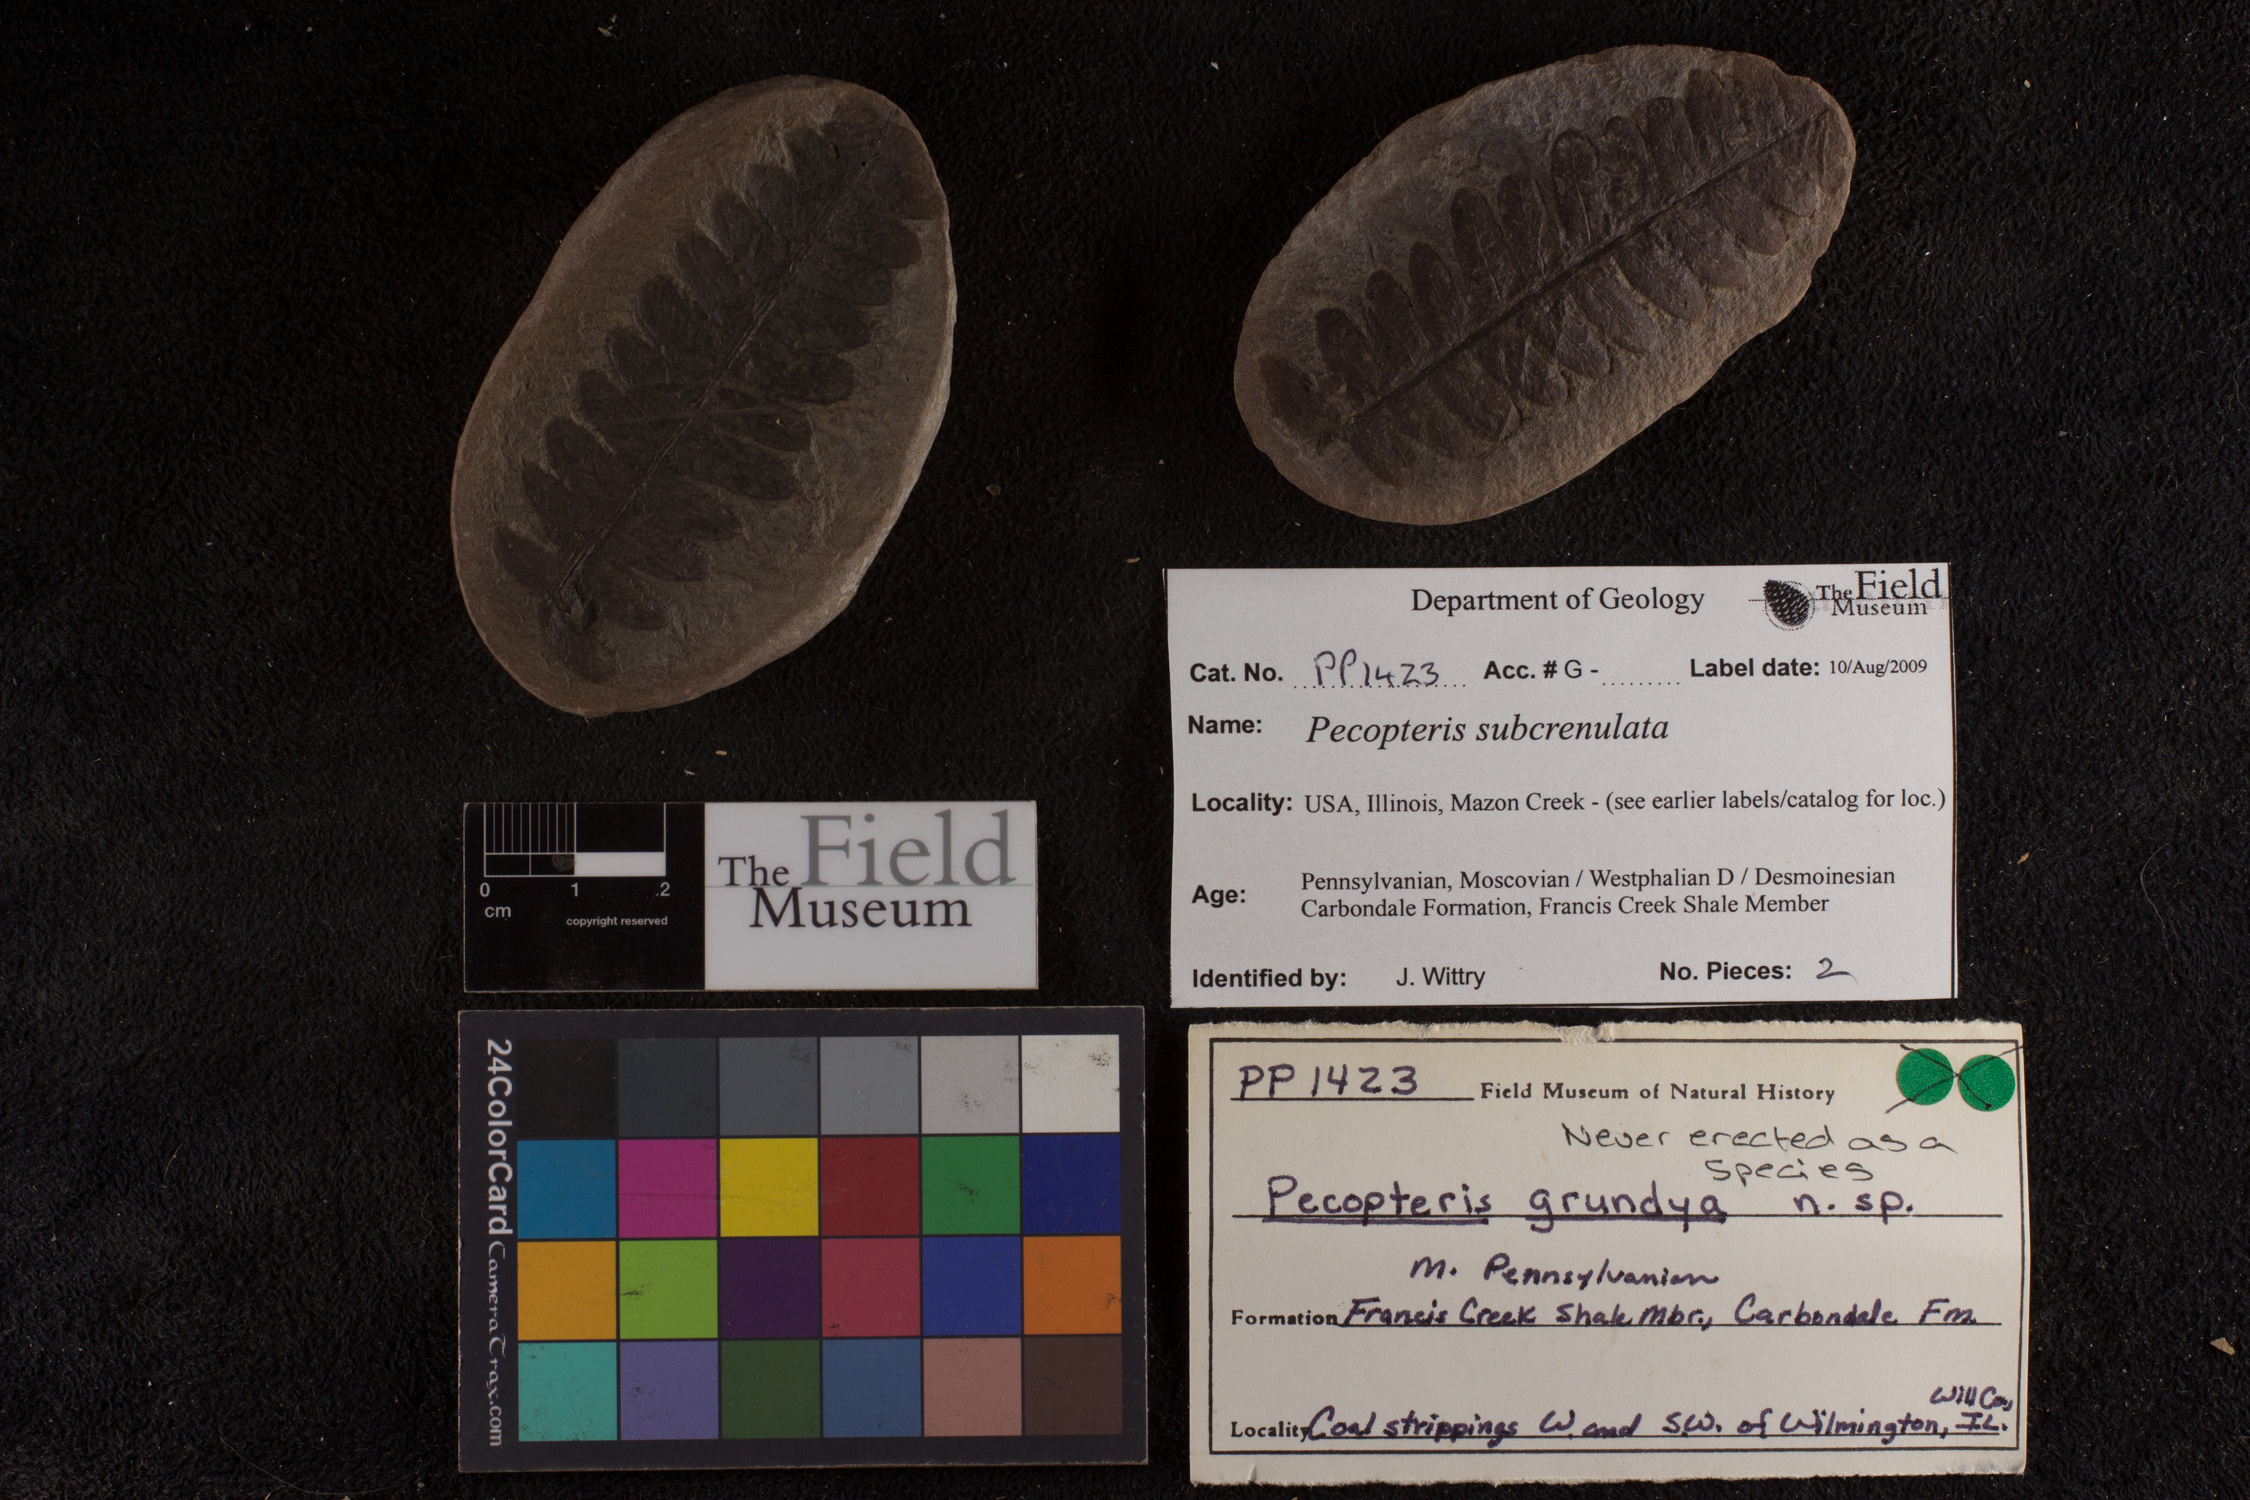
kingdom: Plantae
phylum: Tracheophyta
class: Polypodiopsida
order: Marattiales
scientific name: Marattiales
